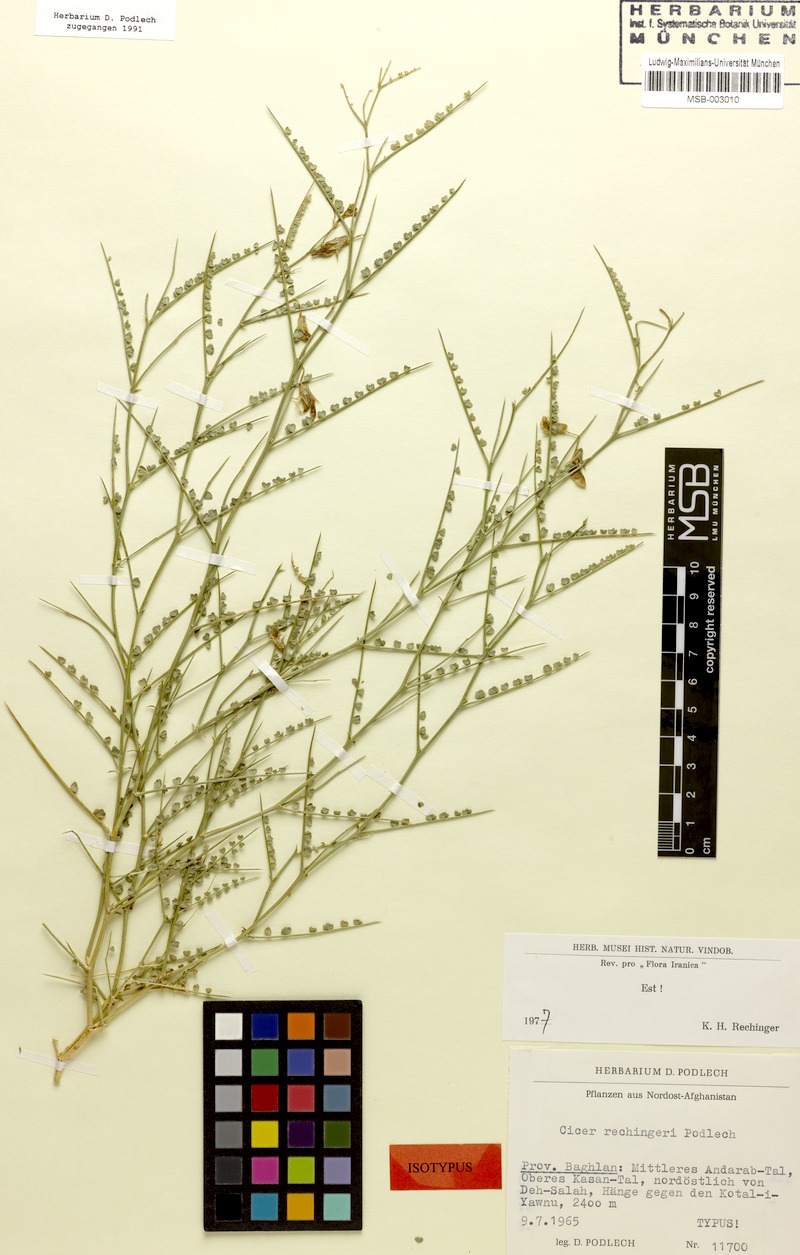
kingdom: Plantae
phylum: Tracheophyta
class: Magnoliopsida
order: Fabales
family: Fabaceae
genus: Cicer
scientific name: Cicer rechingeri
